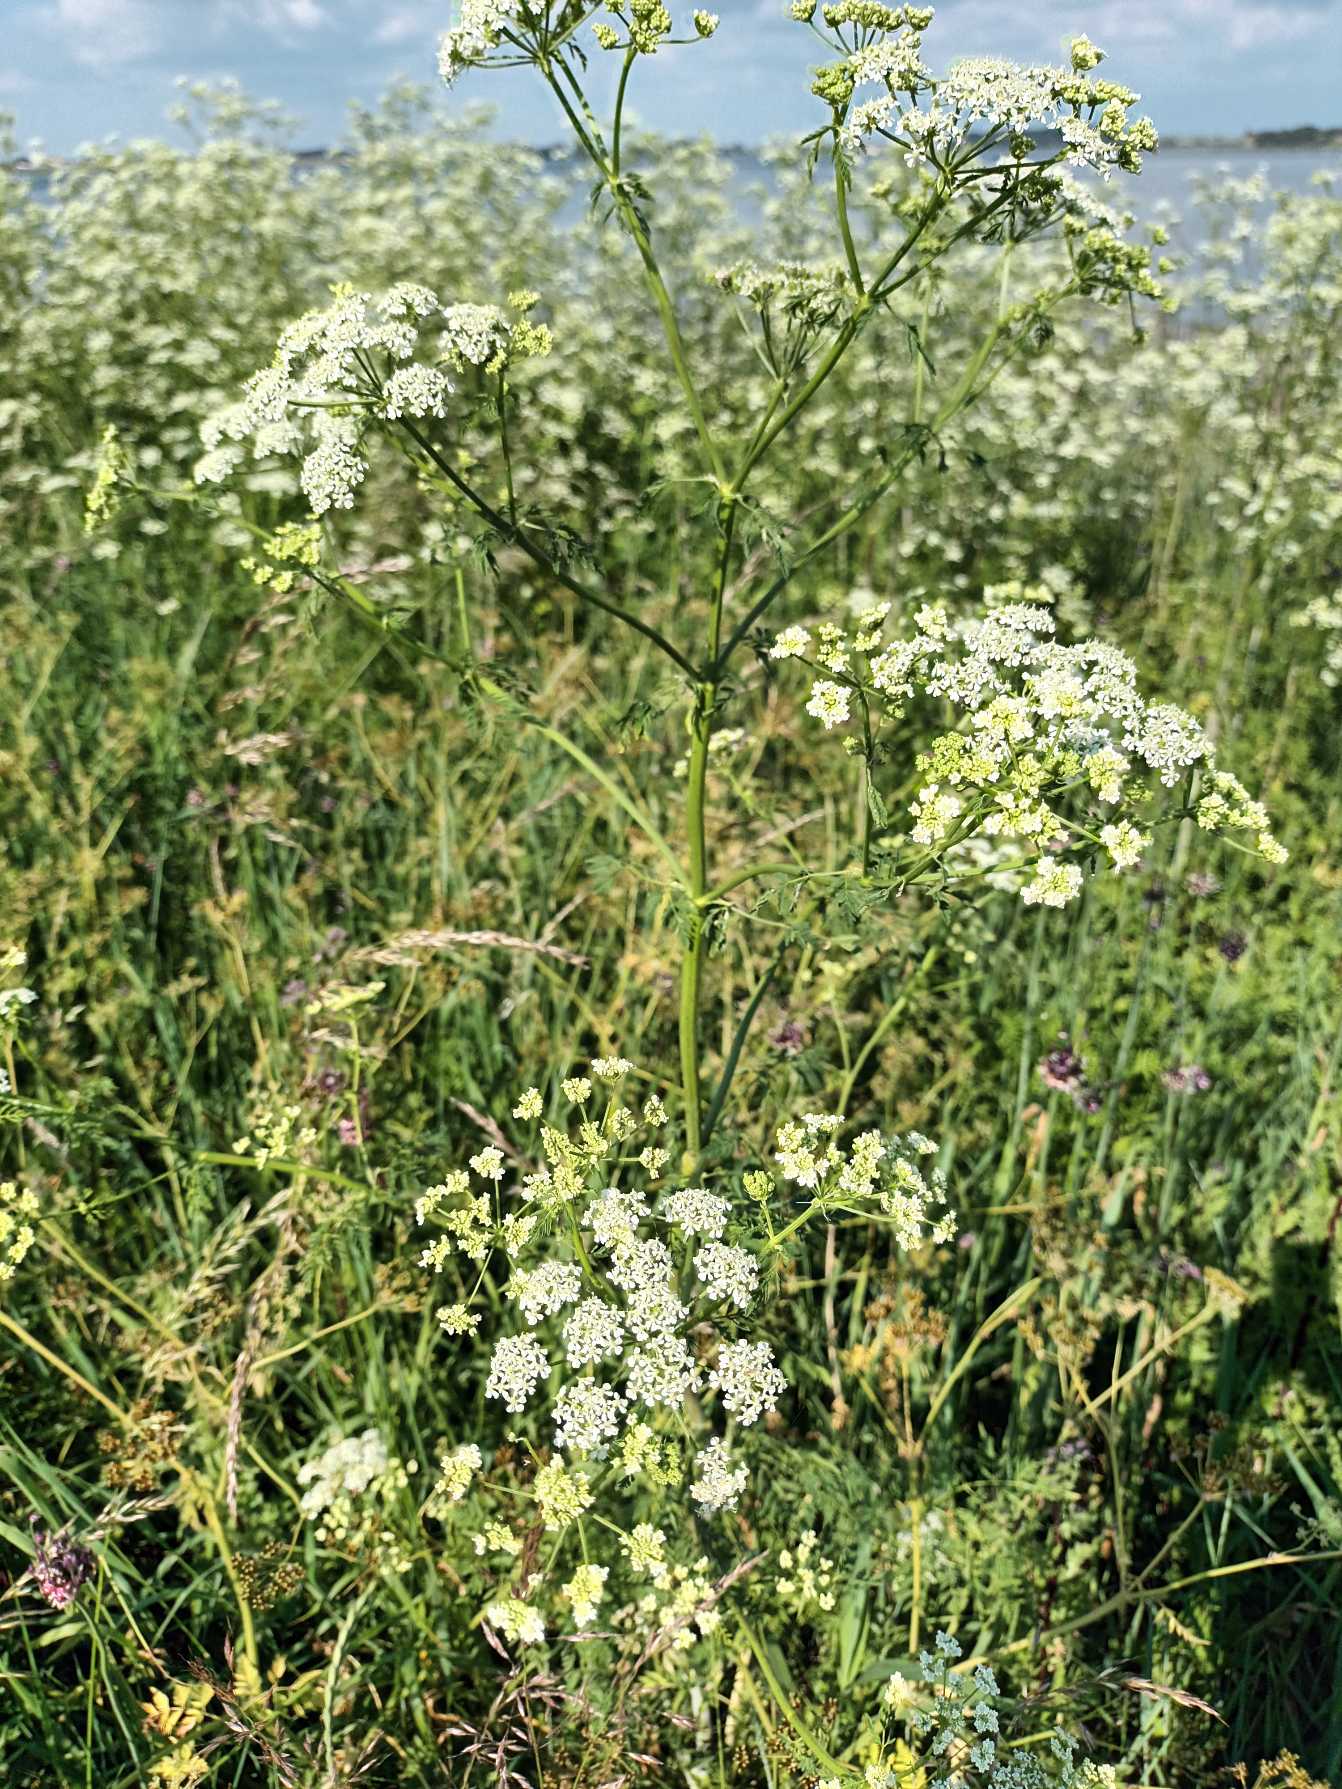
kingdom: Plantae
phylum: Tracheophyta
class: Magnoliopsida
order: Apiales
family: Apiaceae
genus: Anthriscus
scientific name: Anthriscus sylvestris
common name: Vild kørvel
